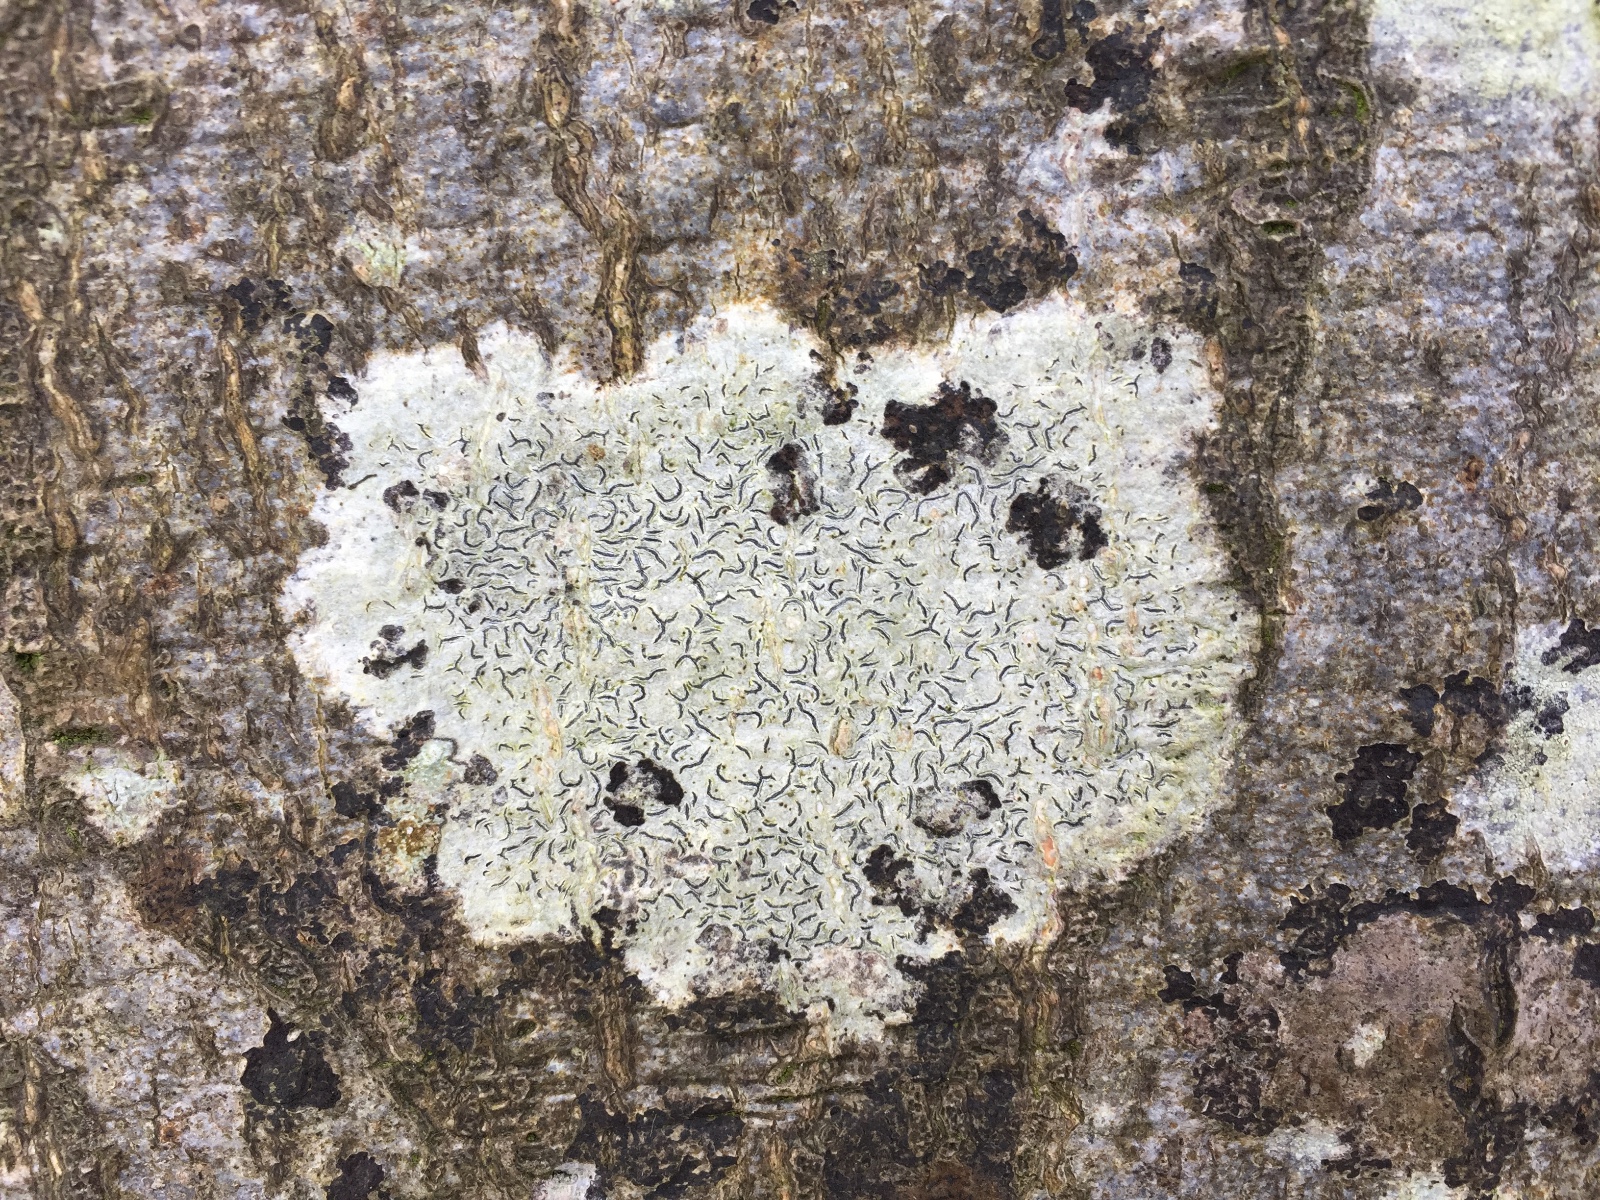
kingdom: Fungi
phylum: Ascomycota
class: Lecanoromycetes
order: Ostropales
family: Graphidaceae
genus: Graphis
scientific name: Graphis scripta
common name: almindelig skriftlav
